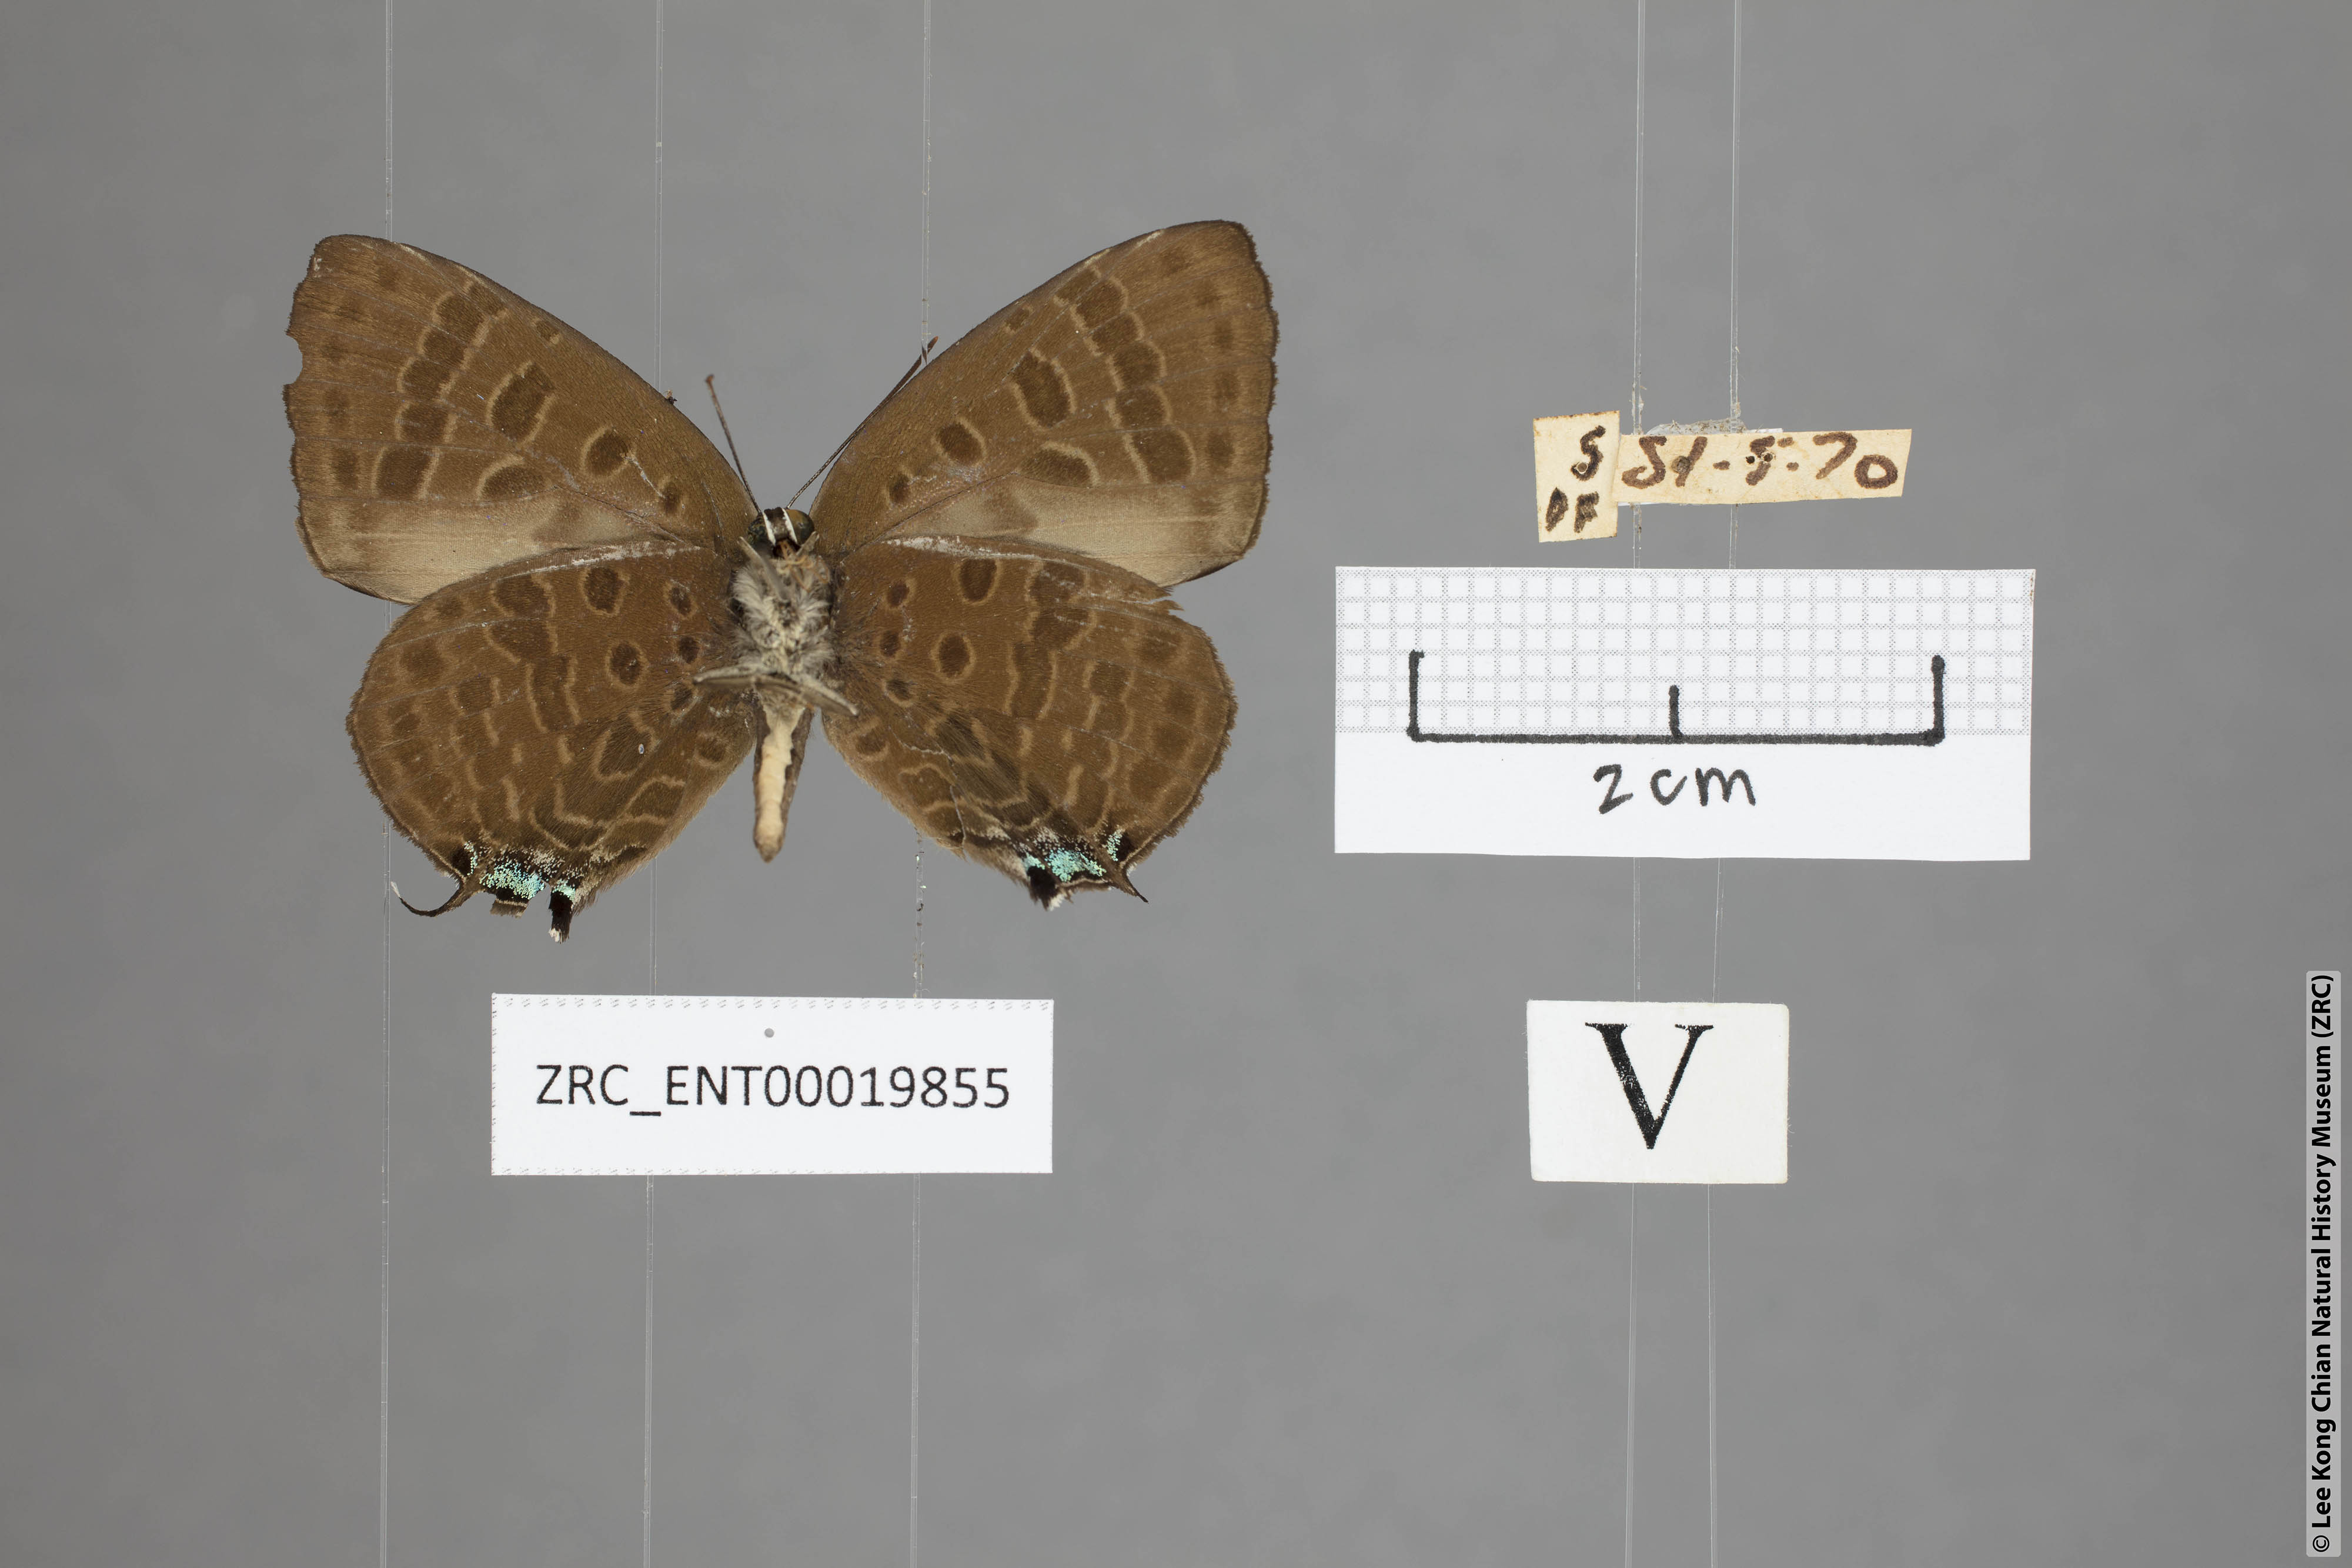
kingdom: Animalia
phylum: Arthropoda
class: Insecta
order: Lepidoptera
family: Lycaenidae
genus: Arhopala
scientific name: Arhopala sublustris
